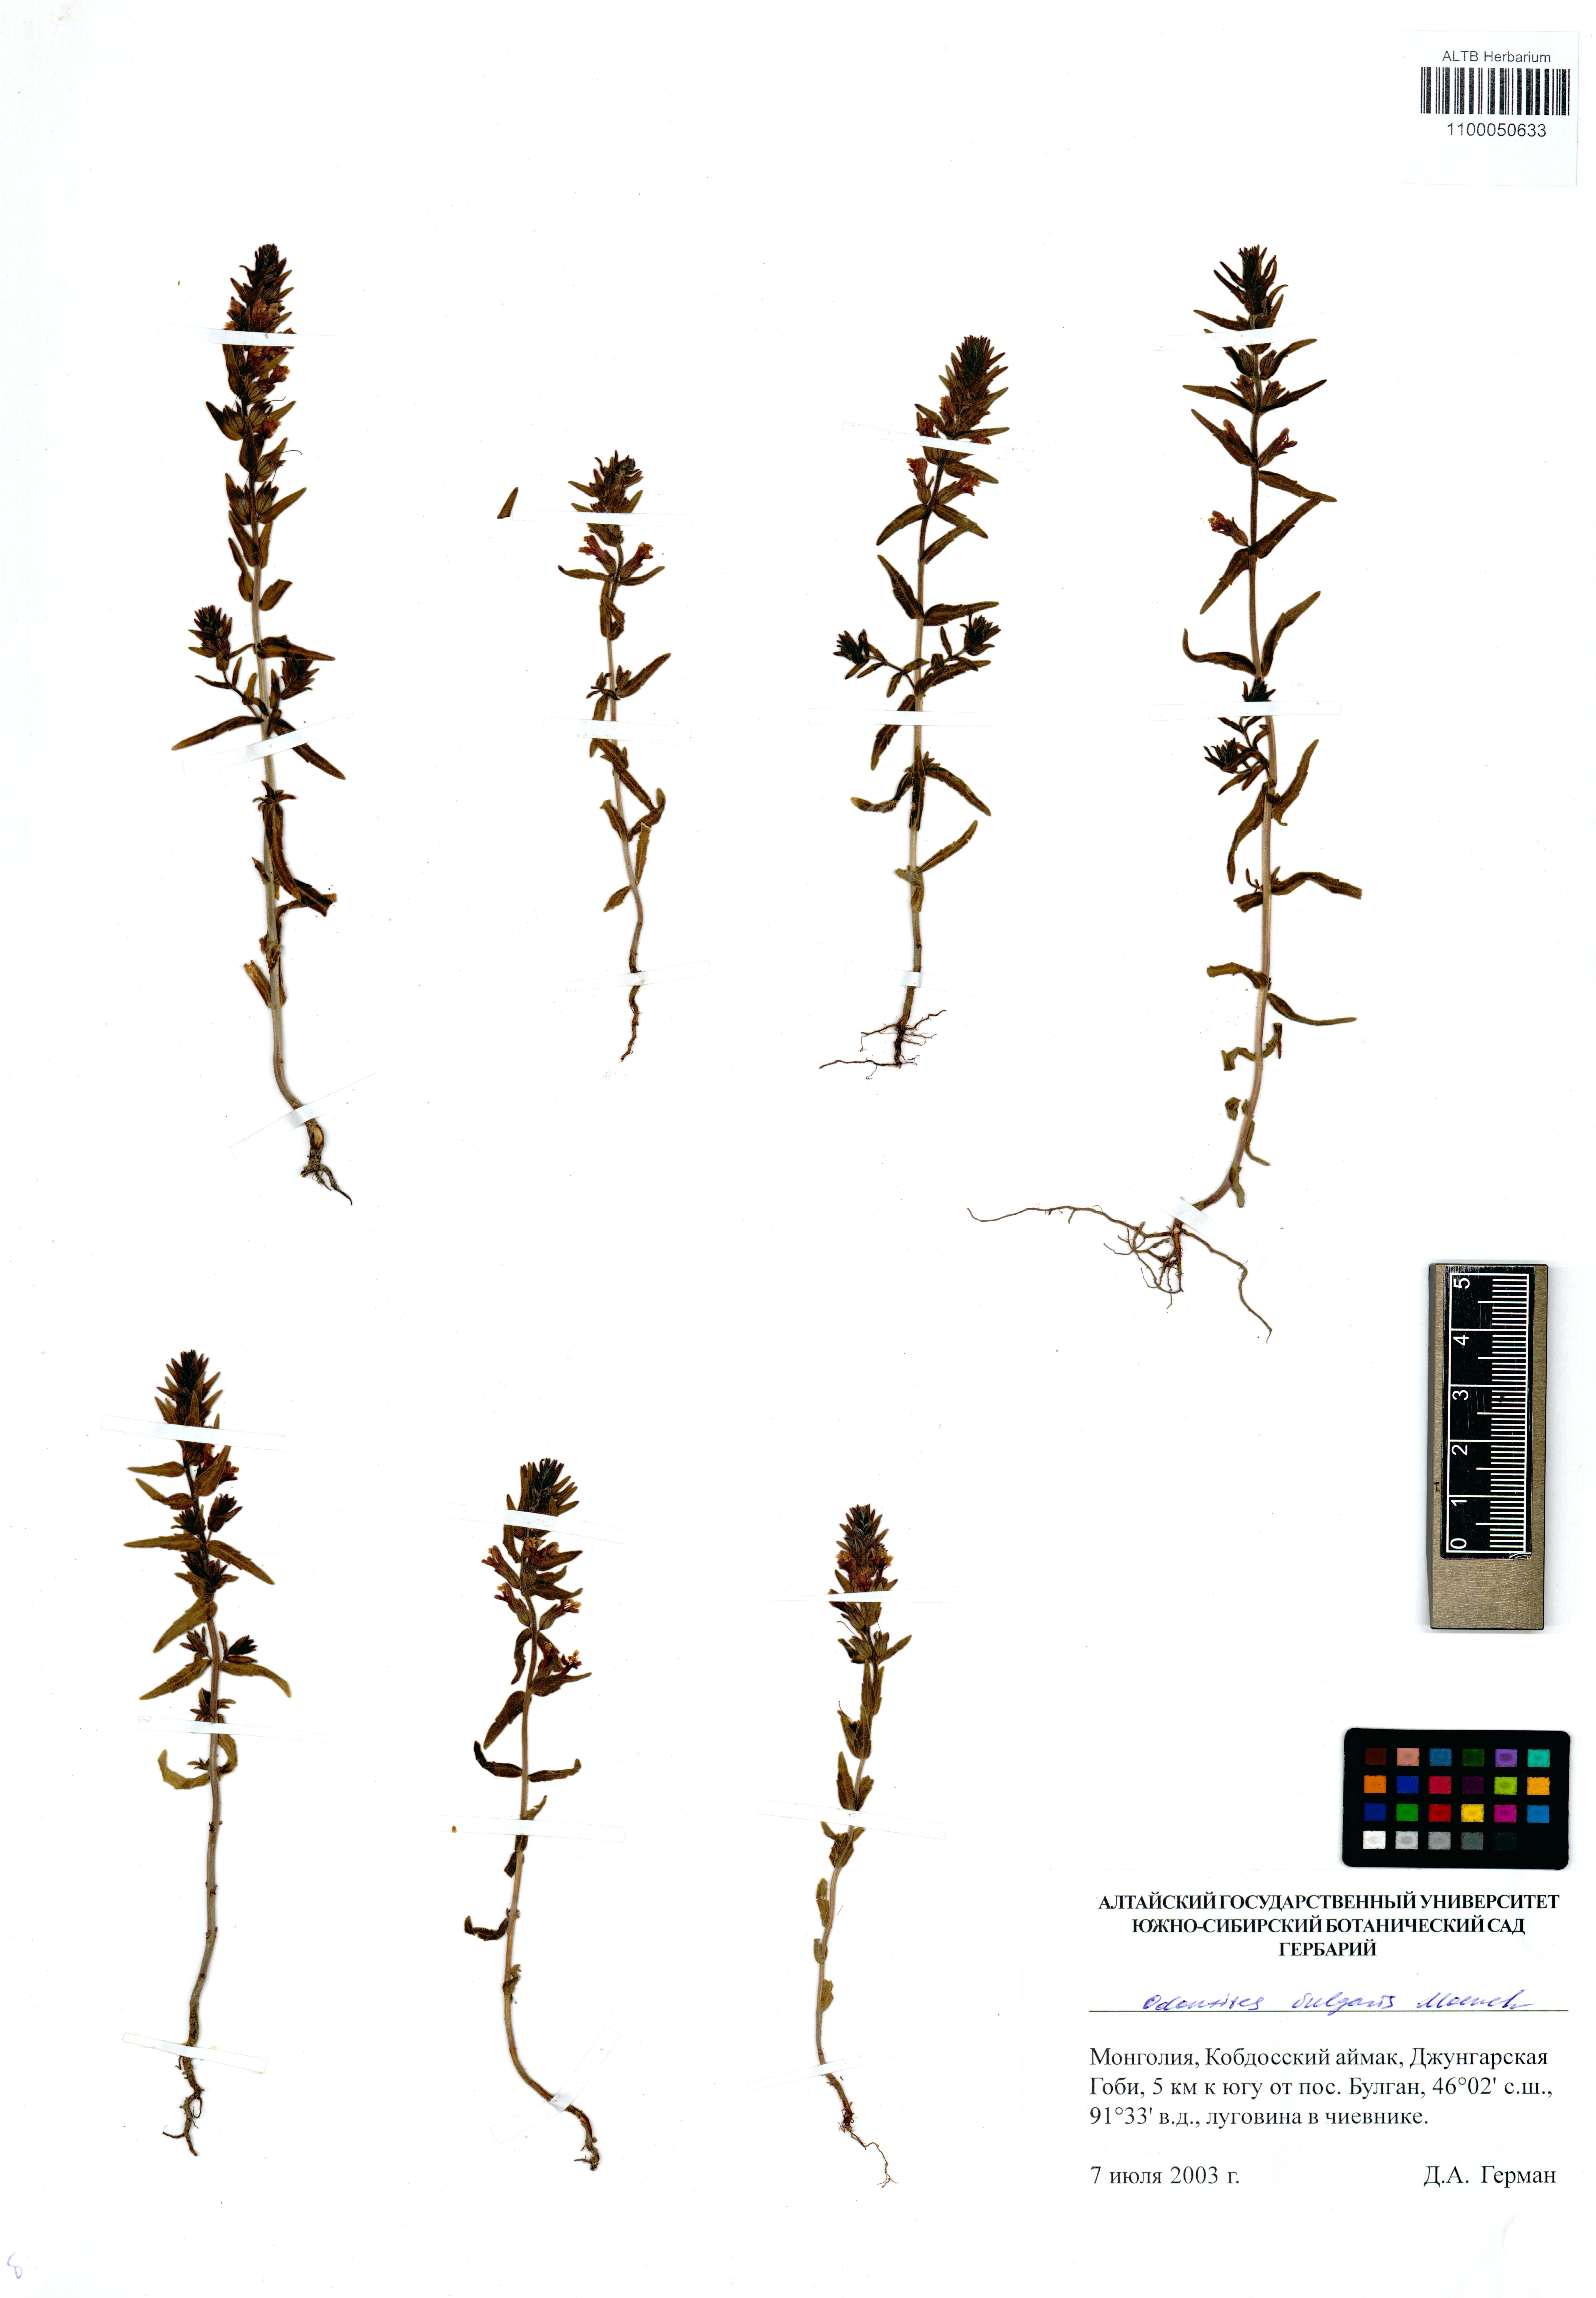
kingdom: Plantae
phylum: Tracheophyta
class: Magnoliopsida
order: Lamiales
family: Orobanchaceae
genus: Odontites
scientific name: Odontites vulgaris
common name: Broomrape
